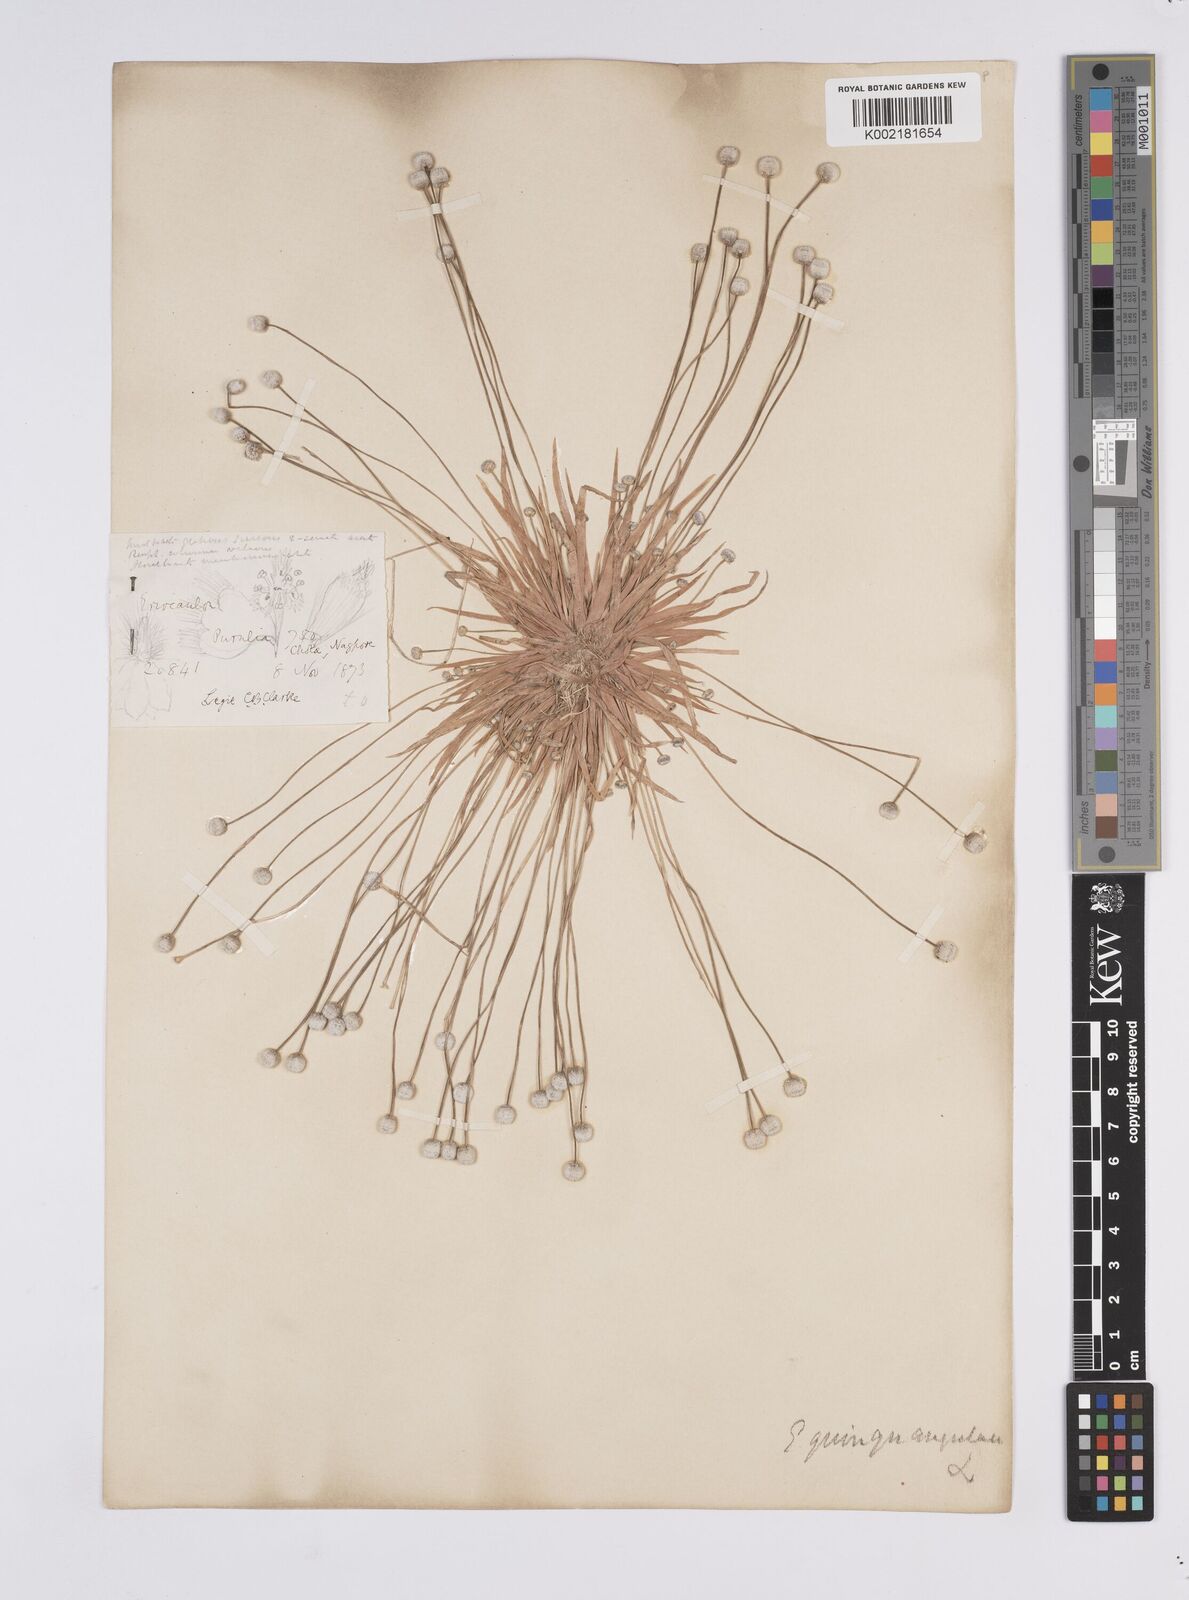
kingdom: Plantae
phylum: Tracheophyta
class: Liliopsida
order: Poales
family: Eriocaulaceae
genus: Eriocaulon
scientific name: Eriocaulon quinquangulare
